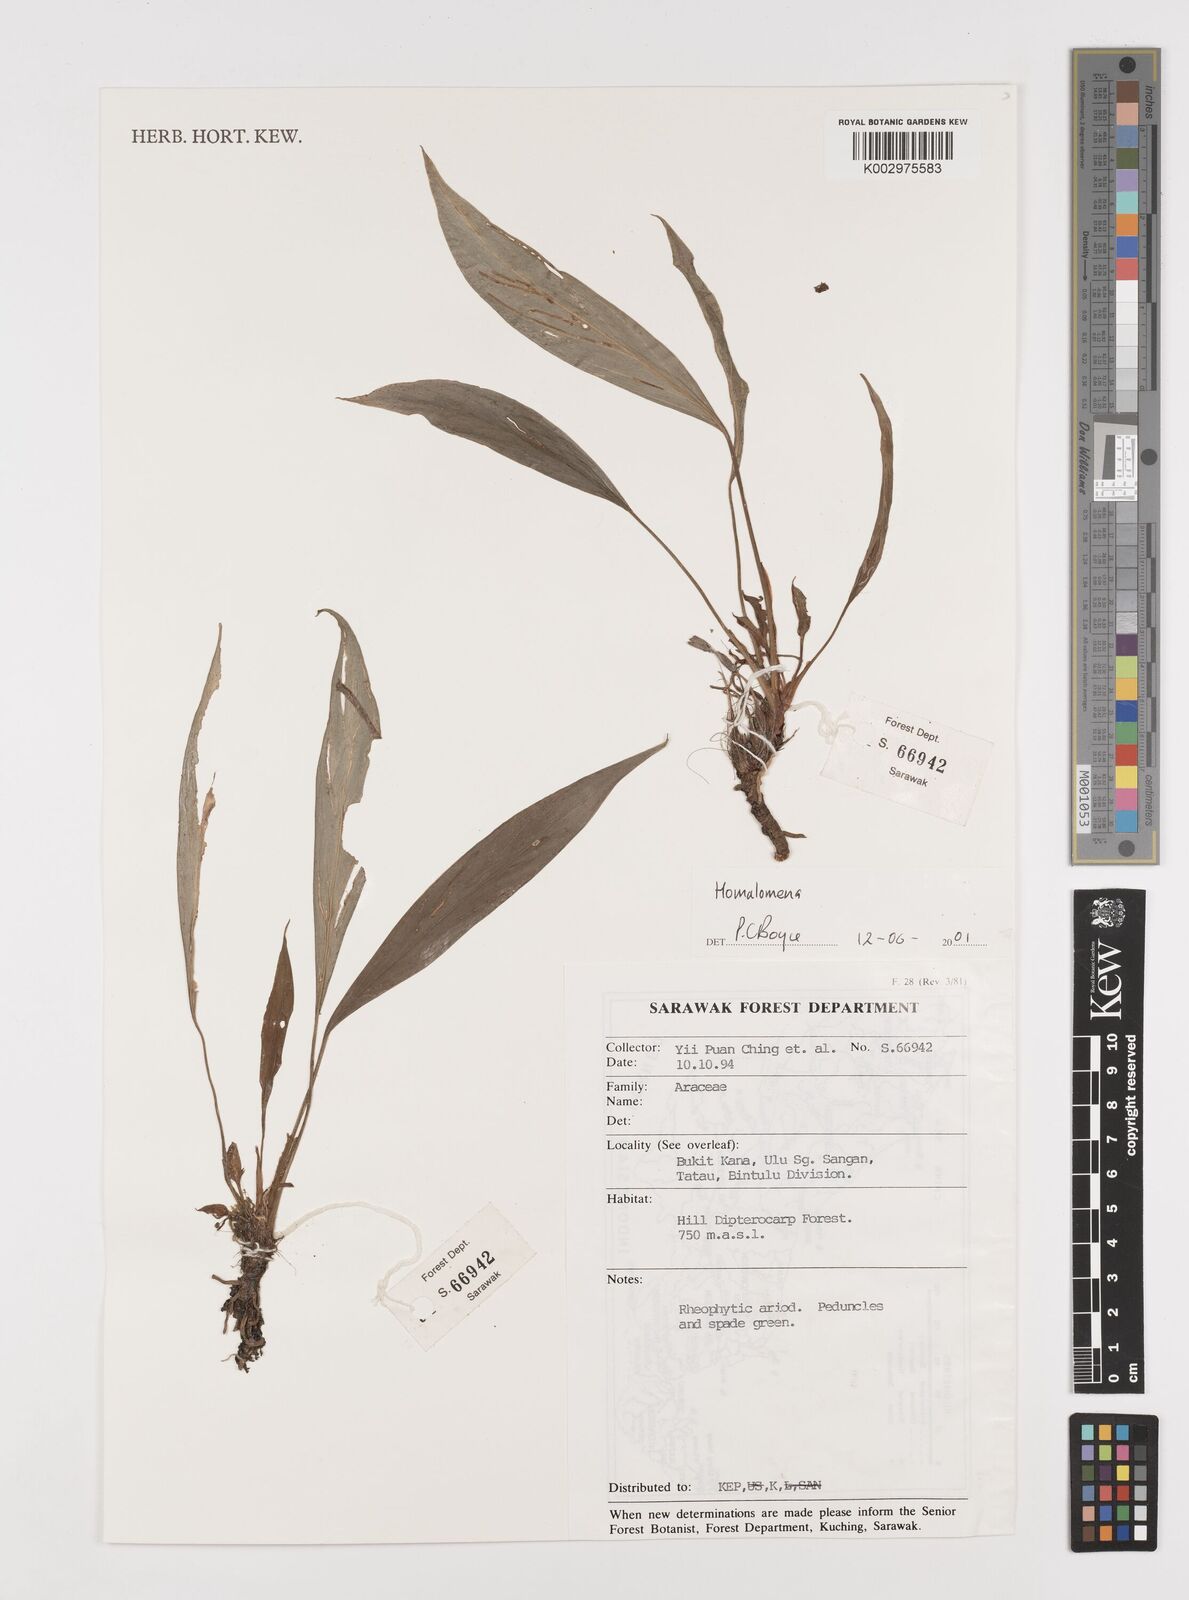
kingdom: Plantae
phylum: Tracheophyta
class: Liliopsida
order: Alismatales
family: Araceae
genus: Homalomena
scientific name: Homalomena
